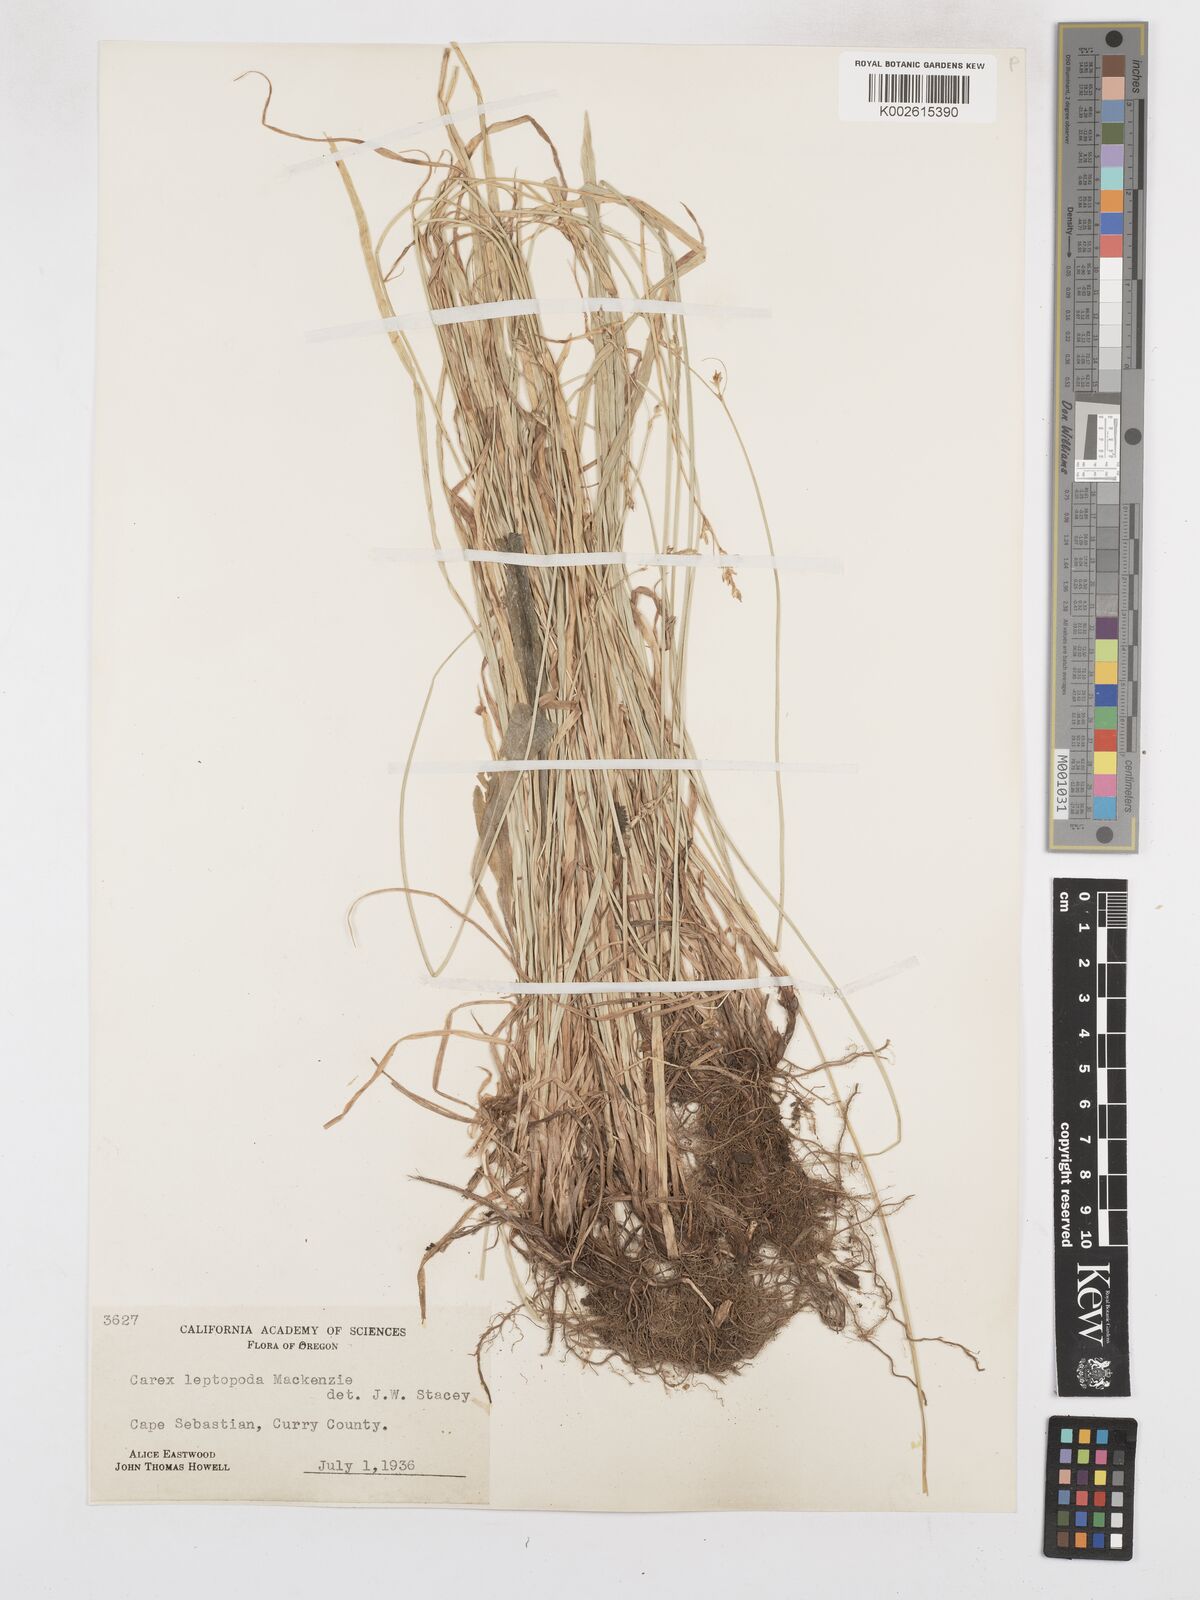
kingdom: Plantae
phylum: Tracheophyta
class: Liliopsida
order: Poales
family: Cyperaceae
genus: Carex
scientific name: Carex leptopoda
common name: Short-scale sedge
